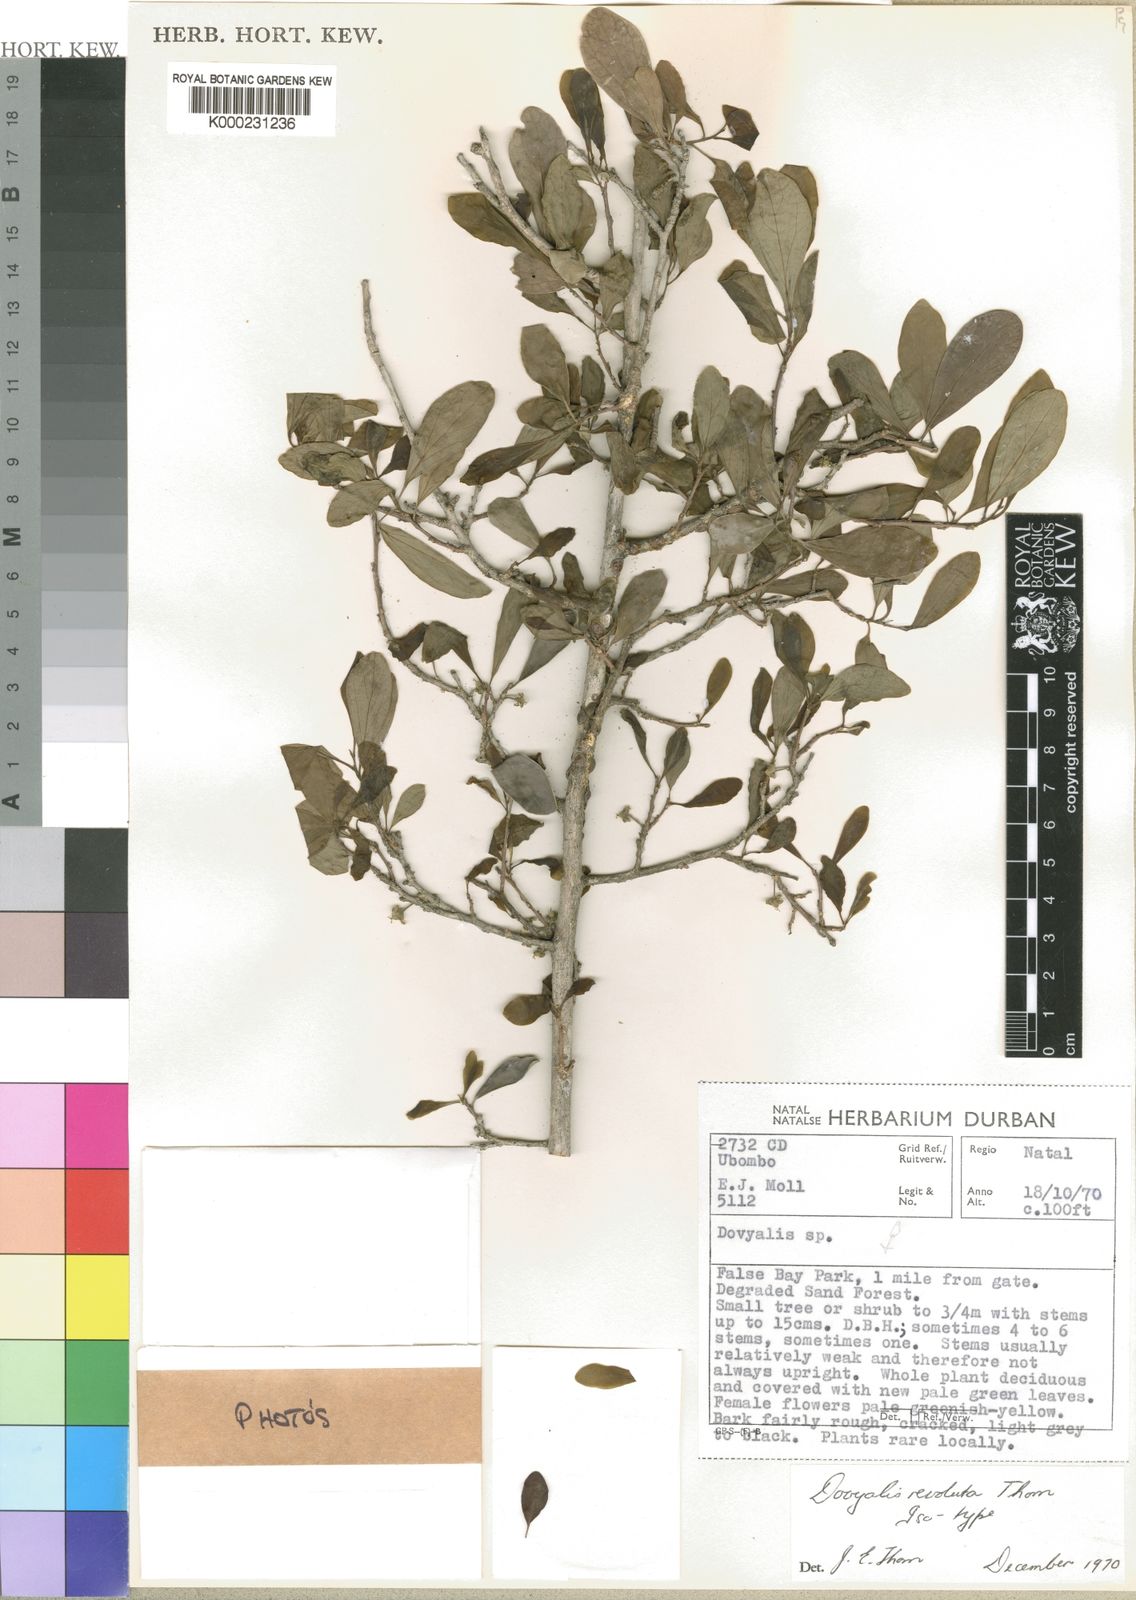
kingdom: Plantae
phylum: Tracheophyta
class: Magnoliopsida
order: Malpighiales
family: Salicaceae
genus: Dovyalis
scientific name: Dovyalis zeyheri
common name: Apricot sourberry
